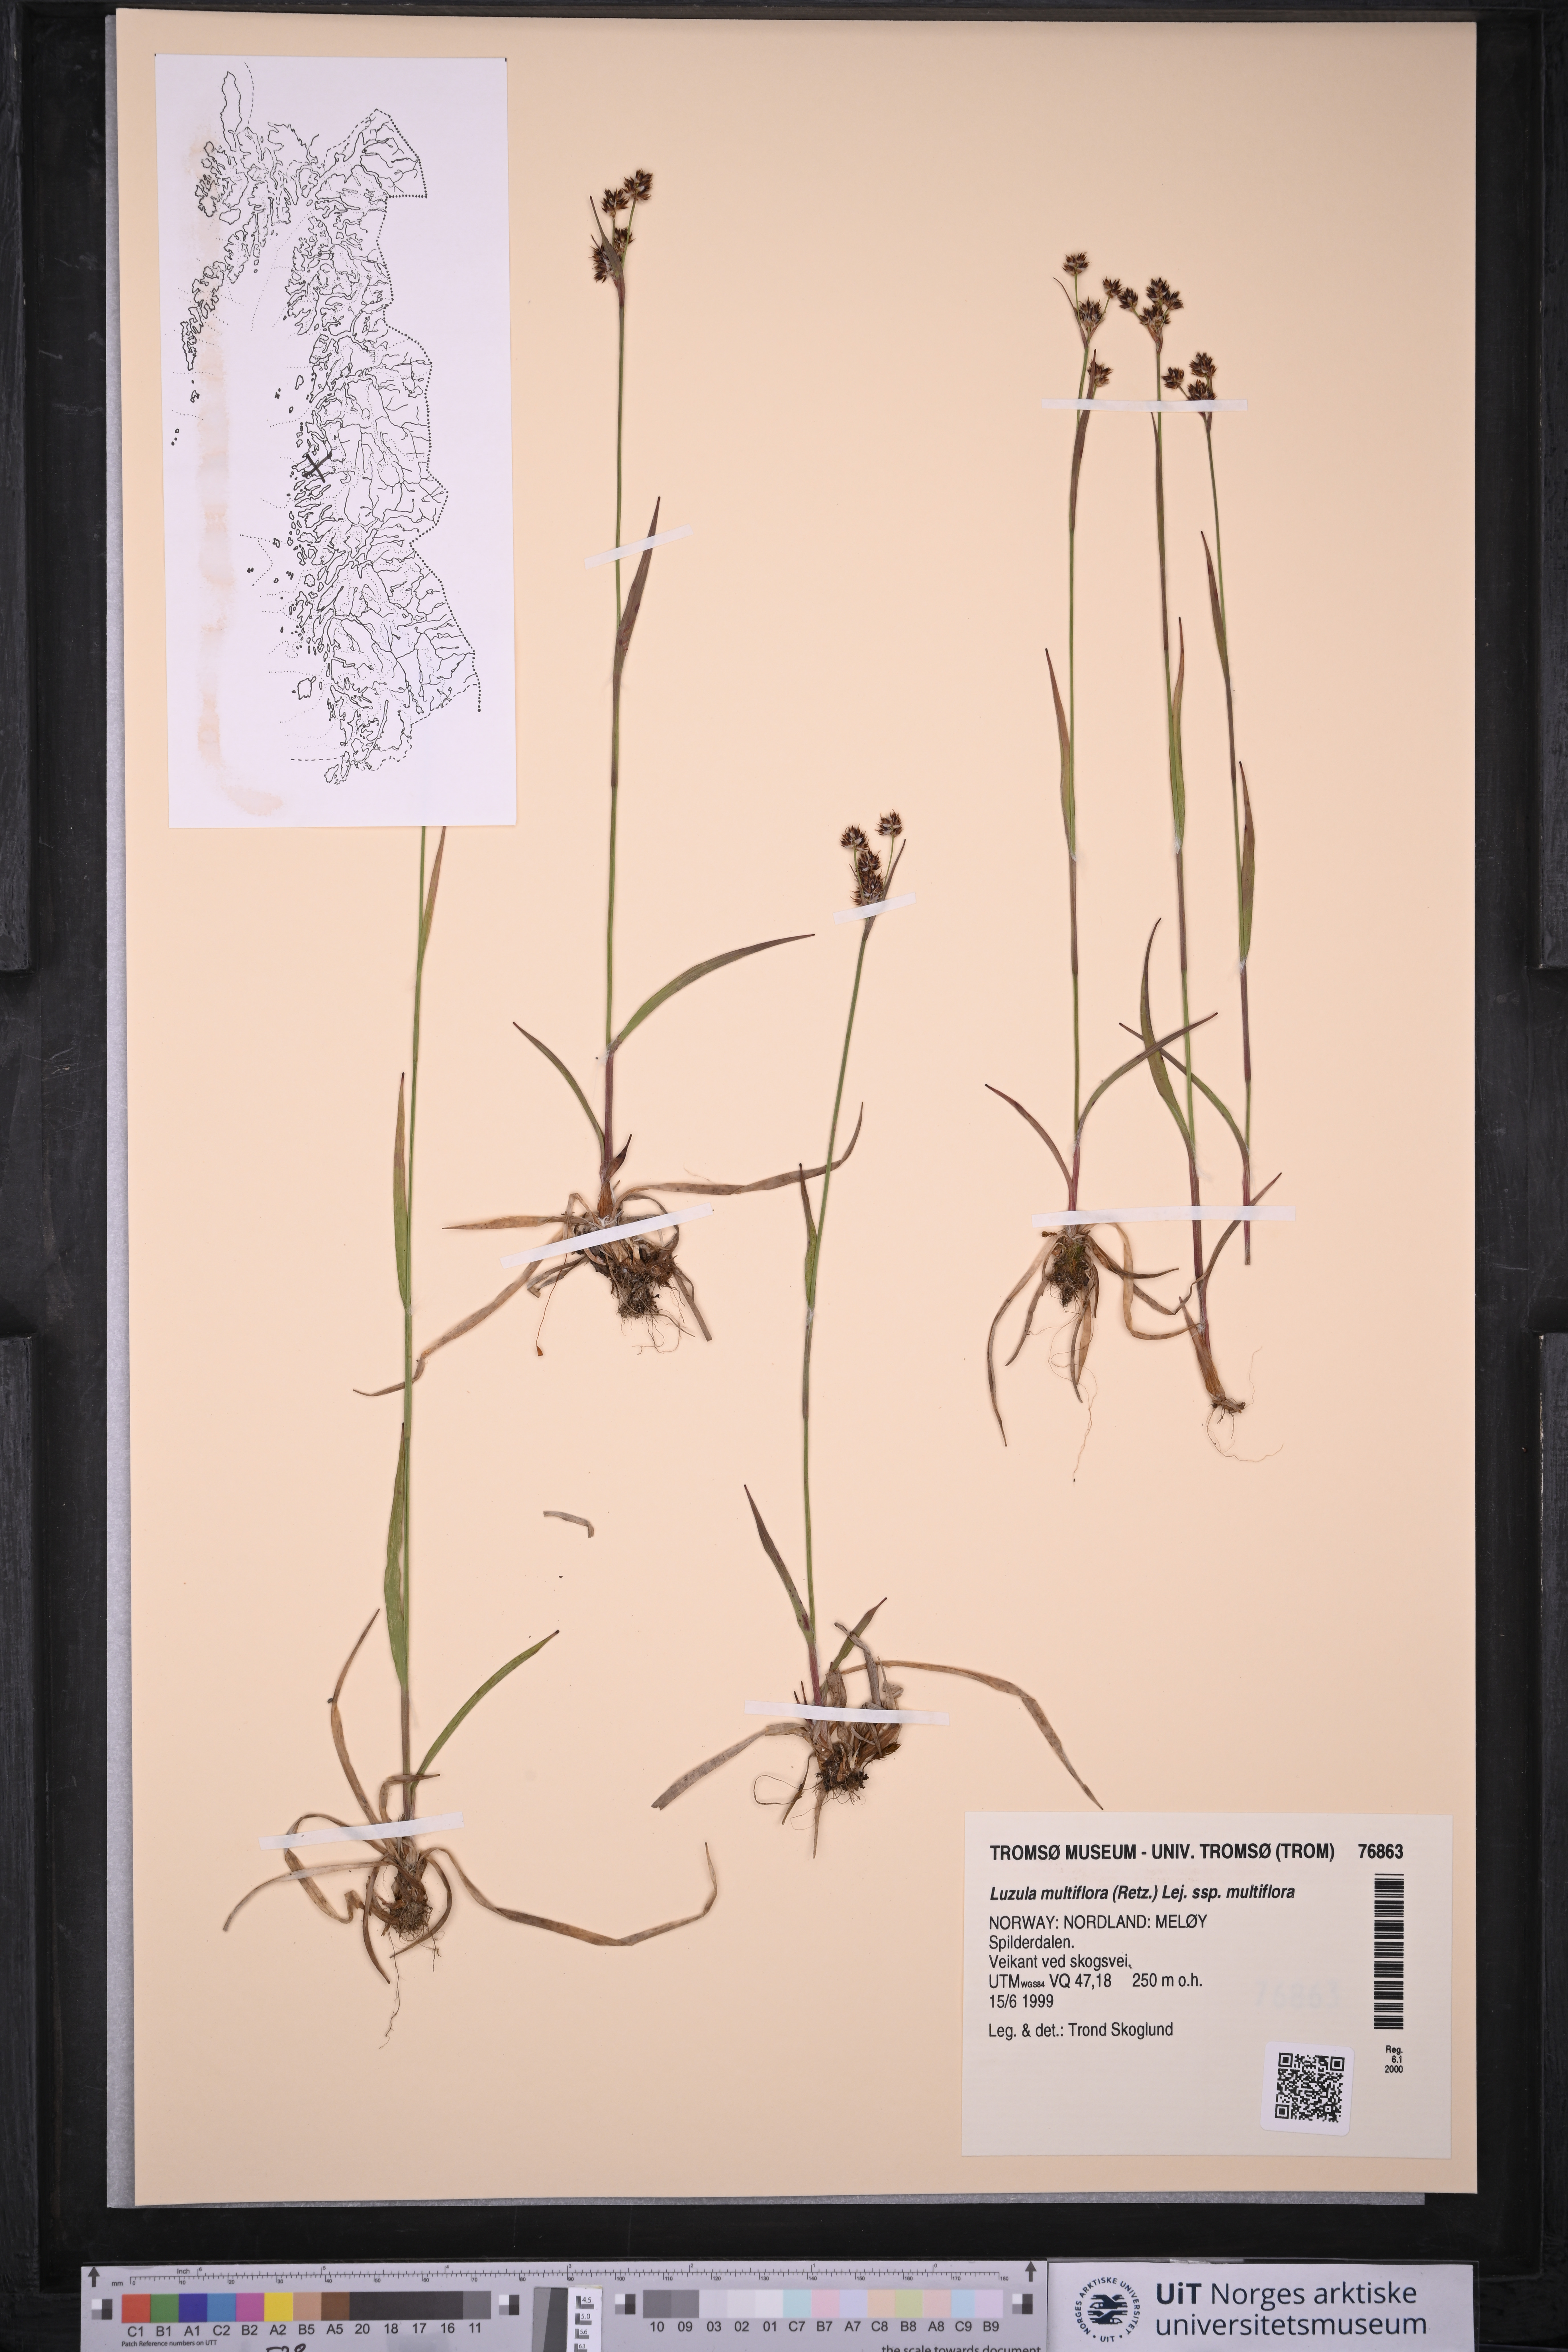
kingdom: Plantae
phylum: Tracheophyta
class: Liliopsida
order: Poales
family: Juncaceae
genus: Luzula
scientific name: Luzula multiflora
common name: Heath wood-rush
